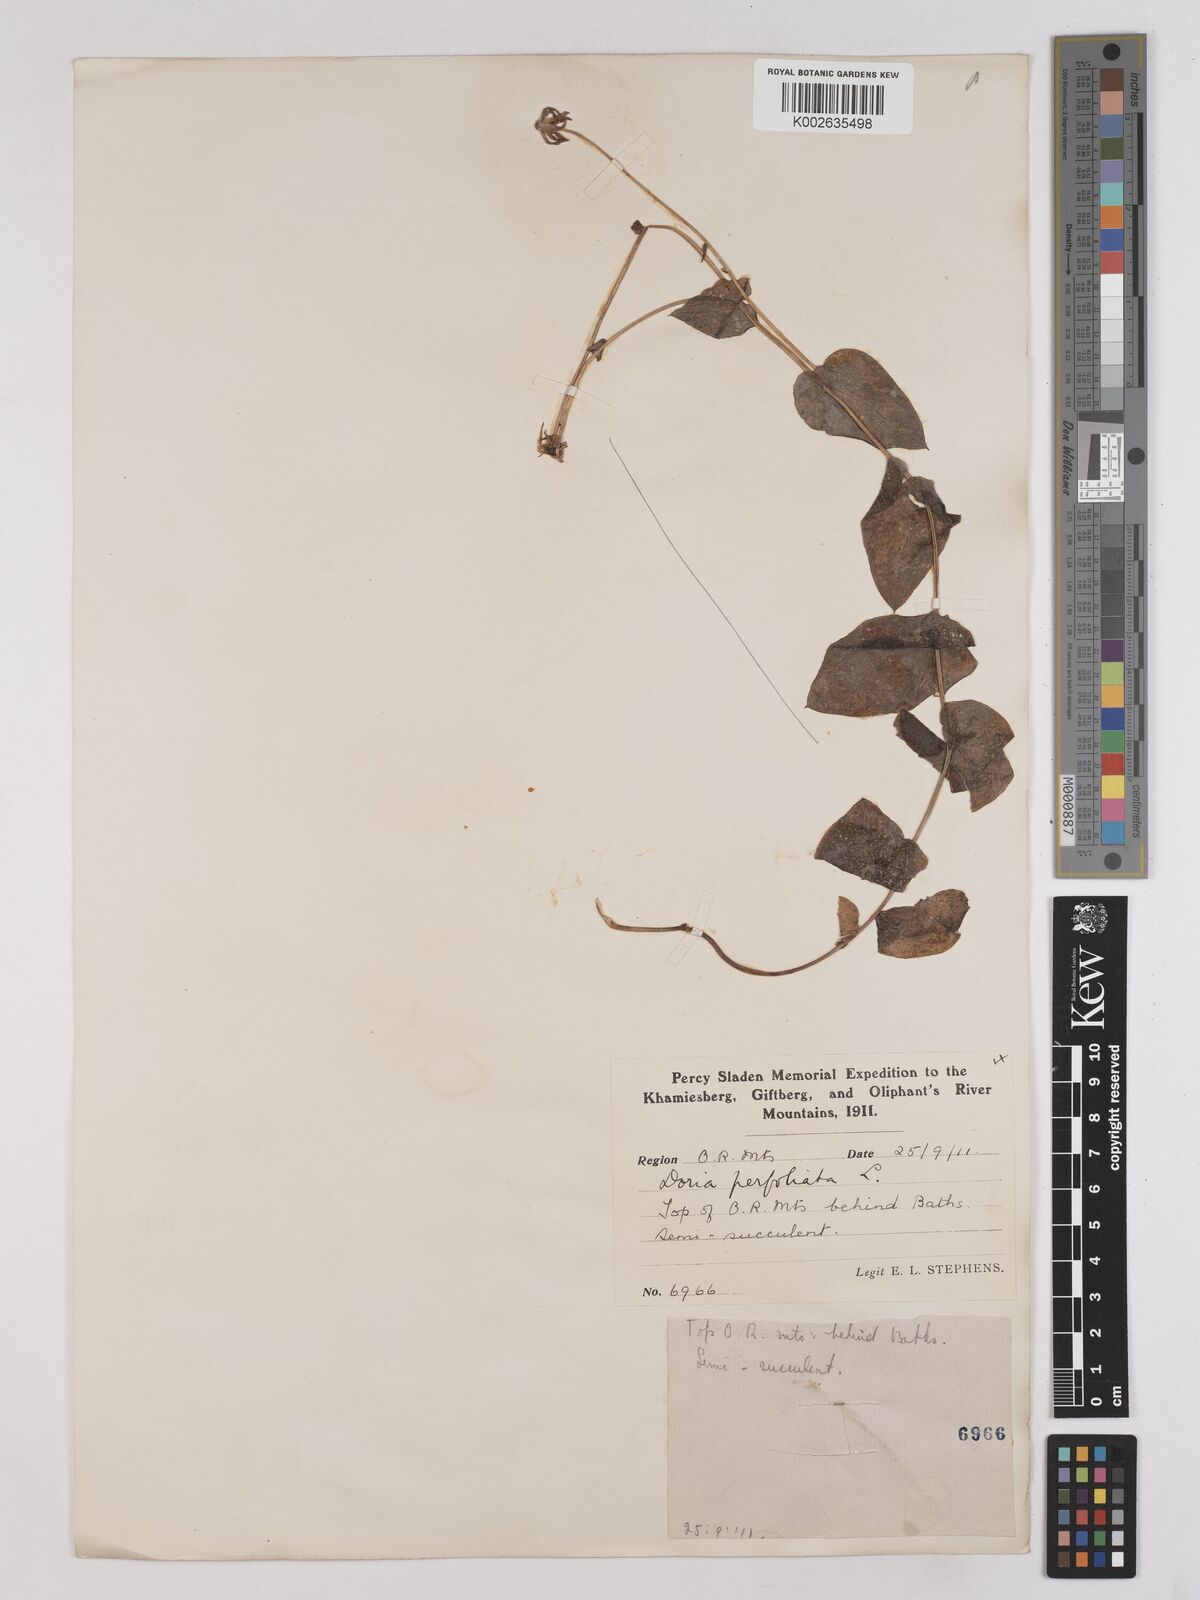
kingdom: Plantae
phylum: Tracheophyta
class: Magnoliopsida
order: Asterales
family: Asteraceae
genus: Othonna
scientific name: Othonna perfoliata
